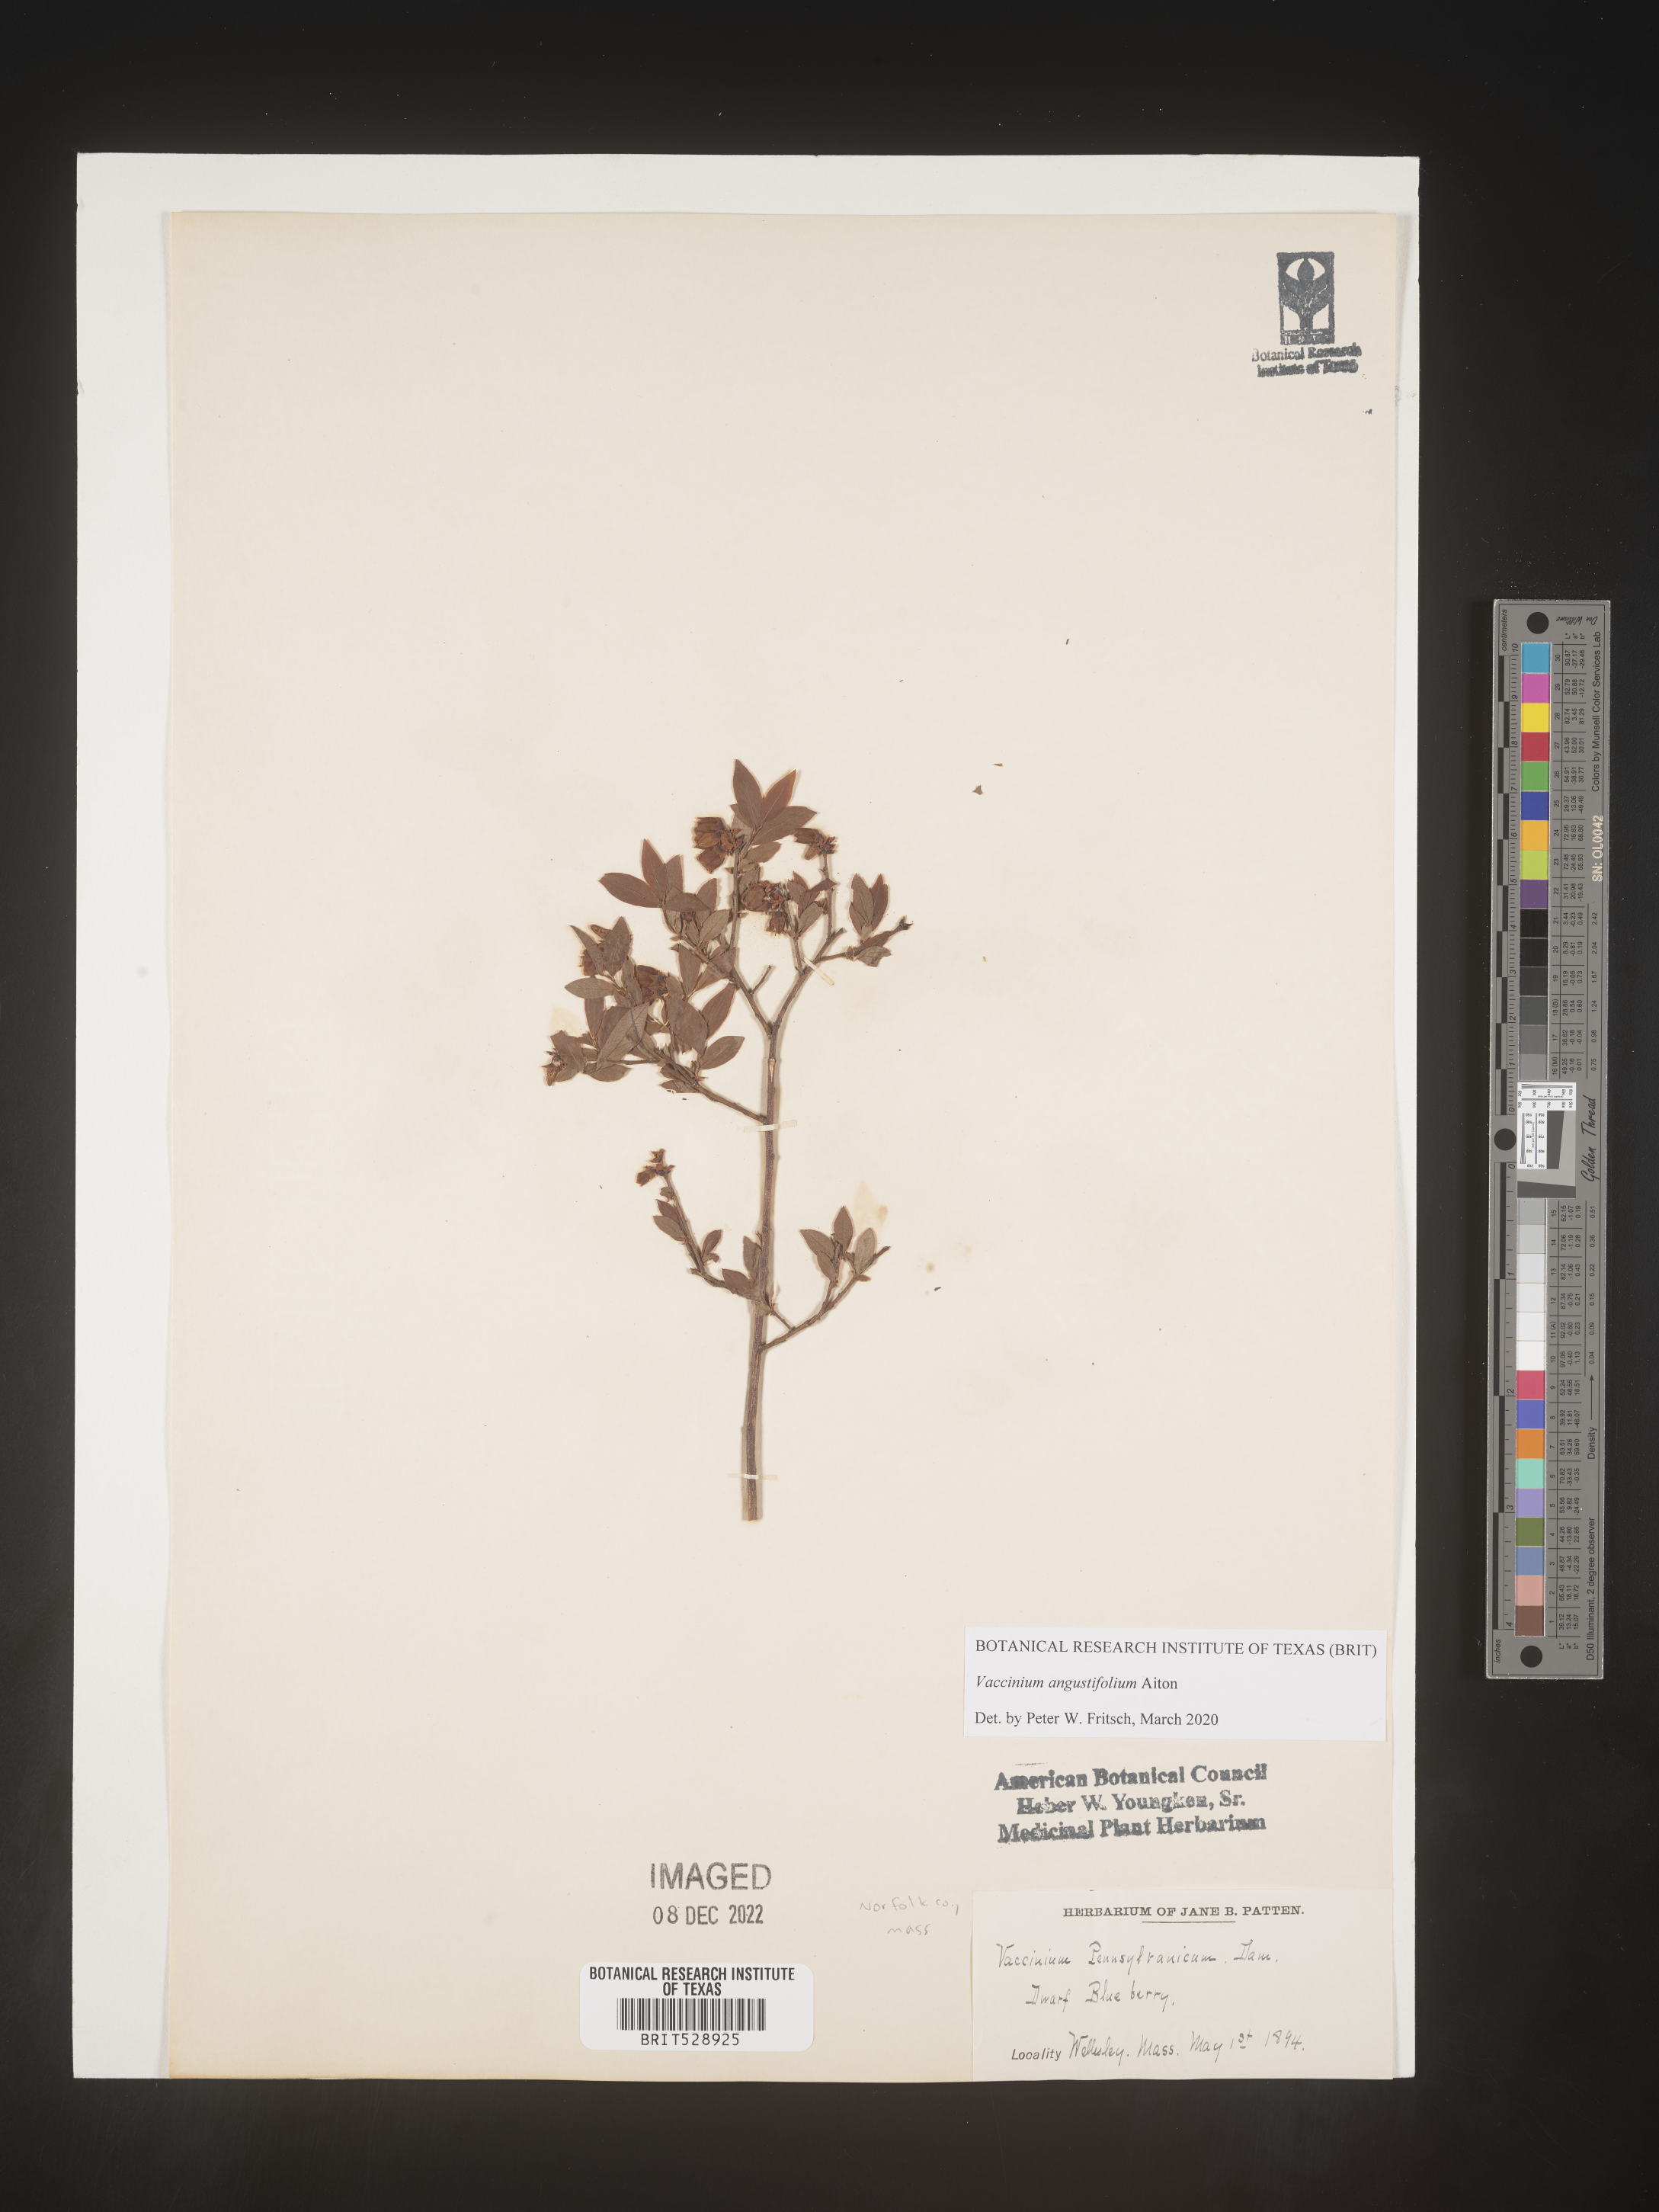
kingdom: Plantae
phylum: Tracheophyta
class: Magnoliopsida
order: Ericales
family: Ericaceae
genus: Vaccinium
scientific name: Vaccinium angustifolium
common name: Early lowbush blueberry
